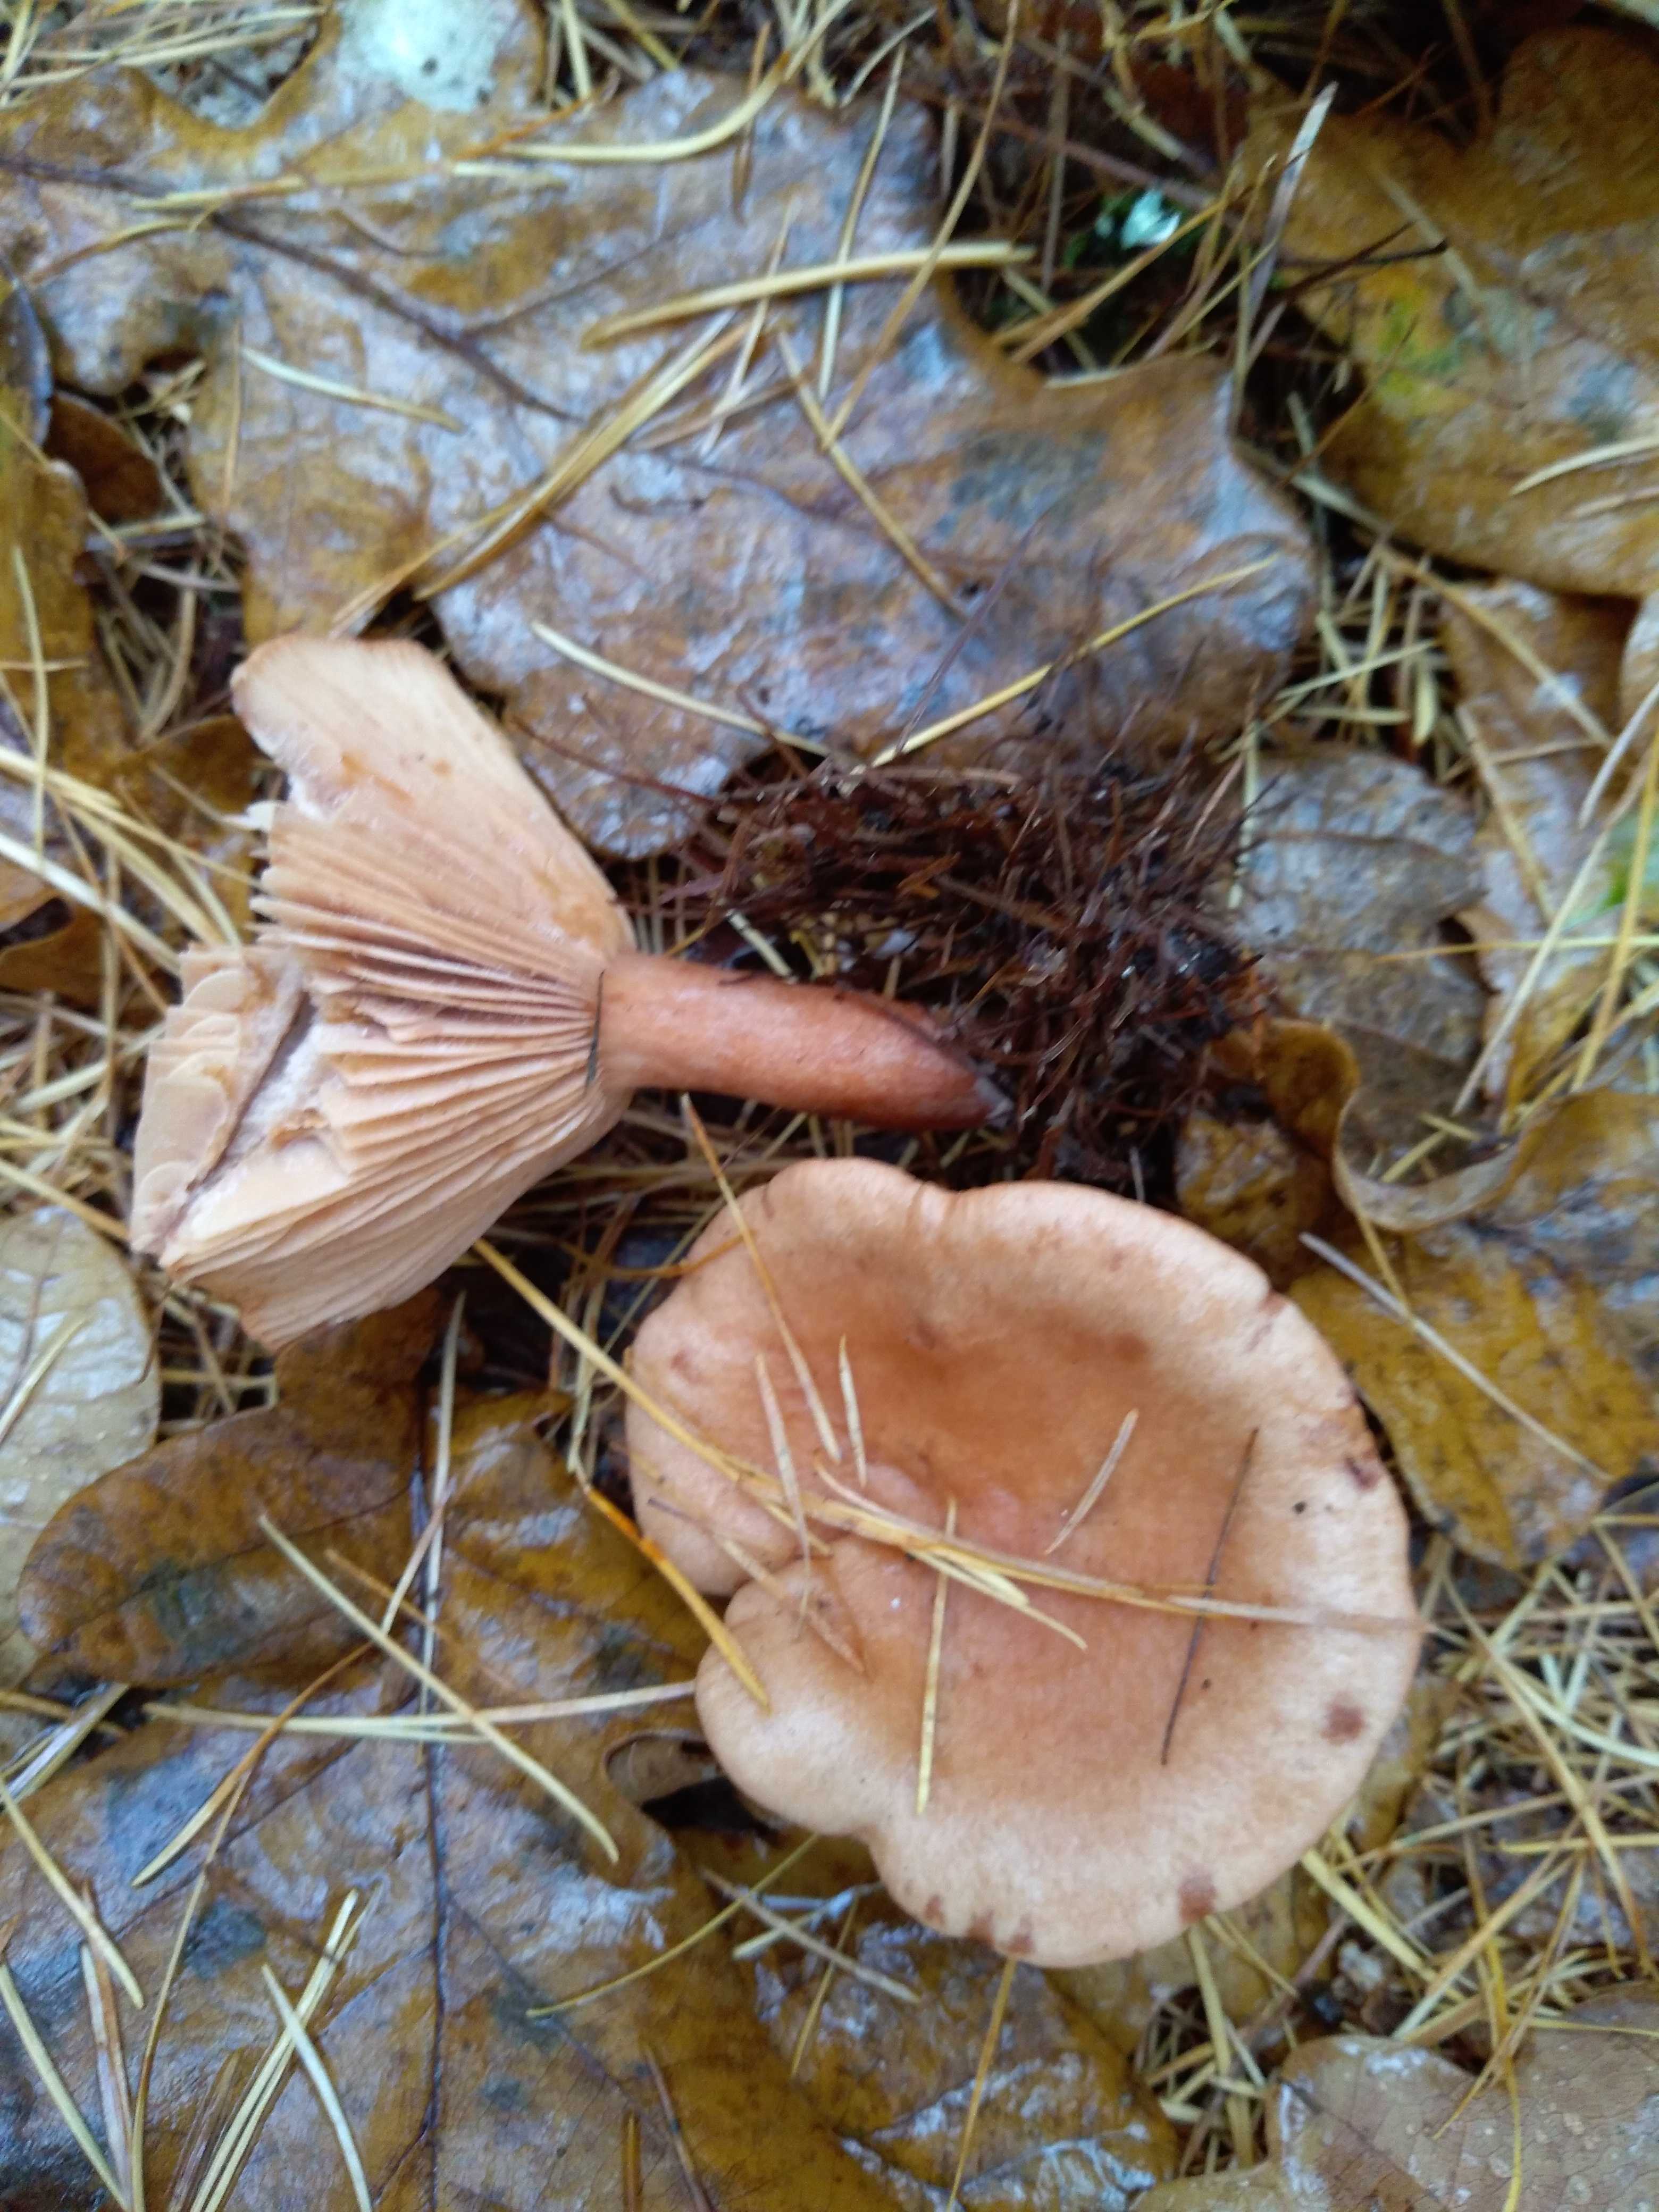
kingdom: Fungi
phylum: Basidiomycota
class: Agaricomycetes
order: Russulales
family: Russulaceae
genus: Lactarius
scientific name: Lactarius
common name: mælkehat
